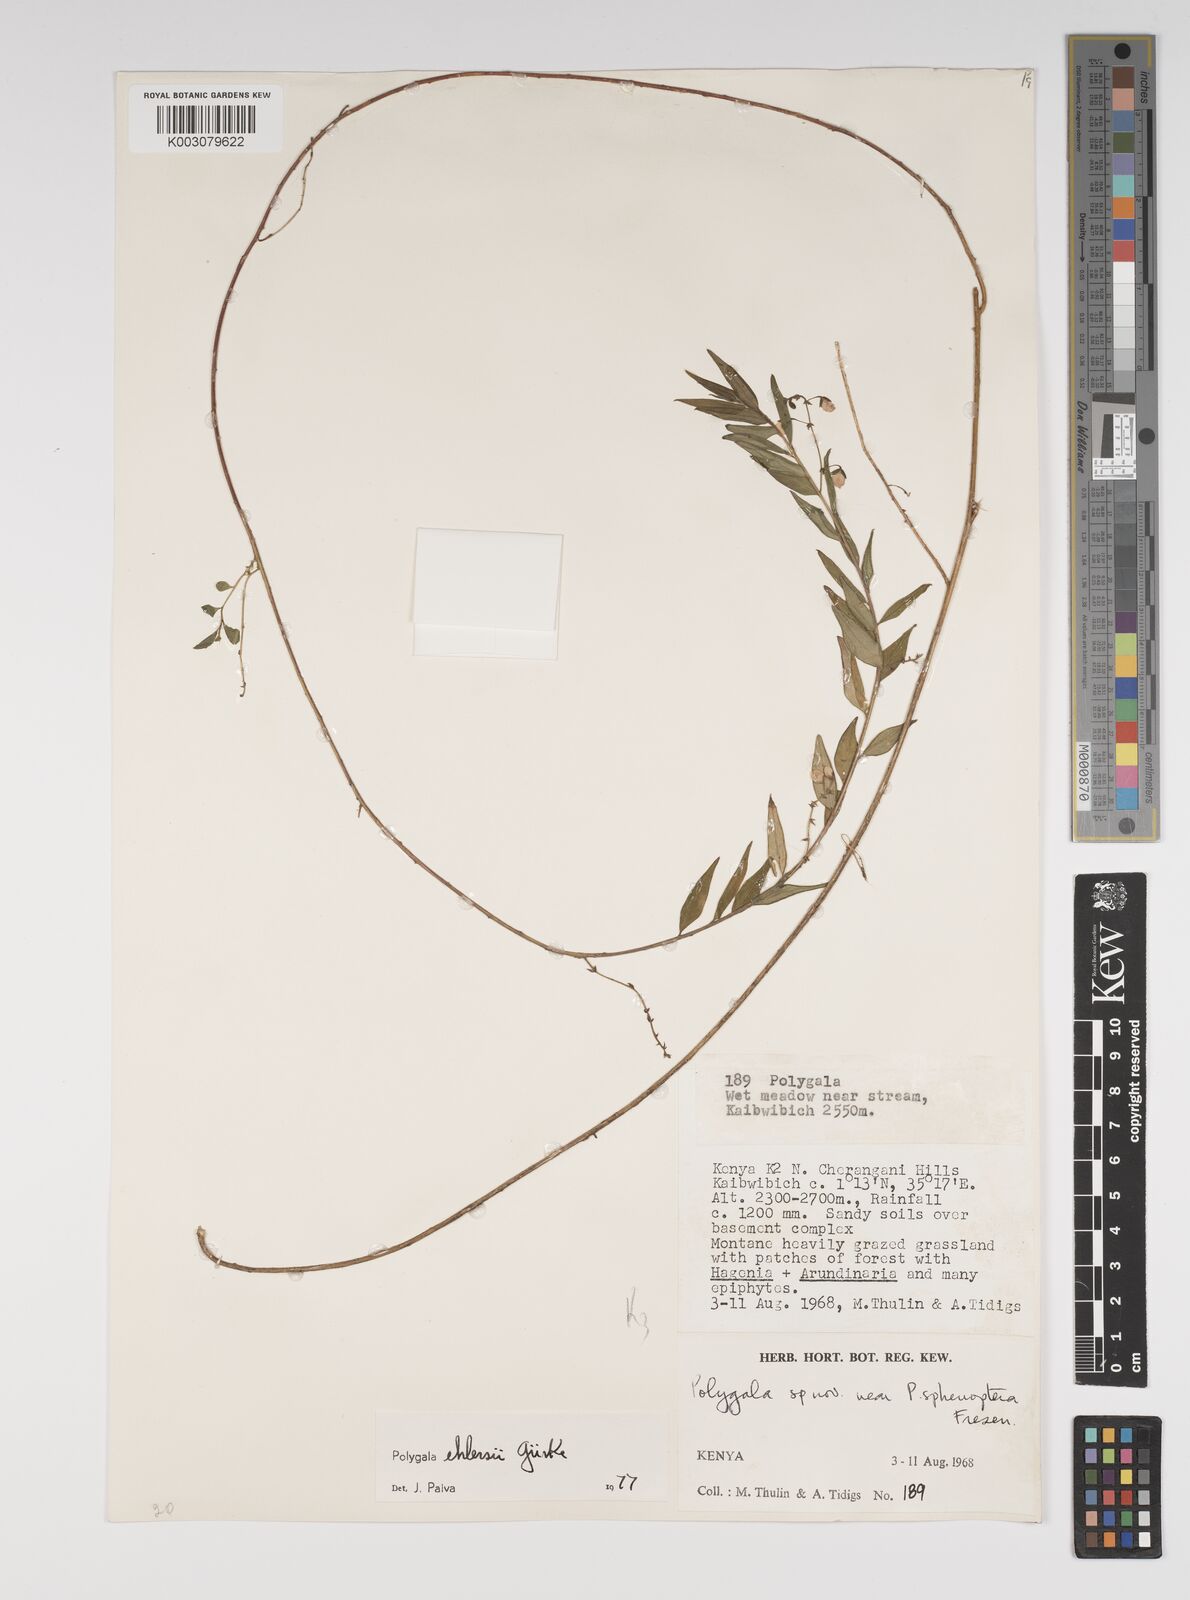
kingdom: Plantae
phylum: Tracheophyta
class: Magnoliopsida
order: Fabales
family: Polygalaceae
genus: Polygala
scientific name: Polygala ehlersii
